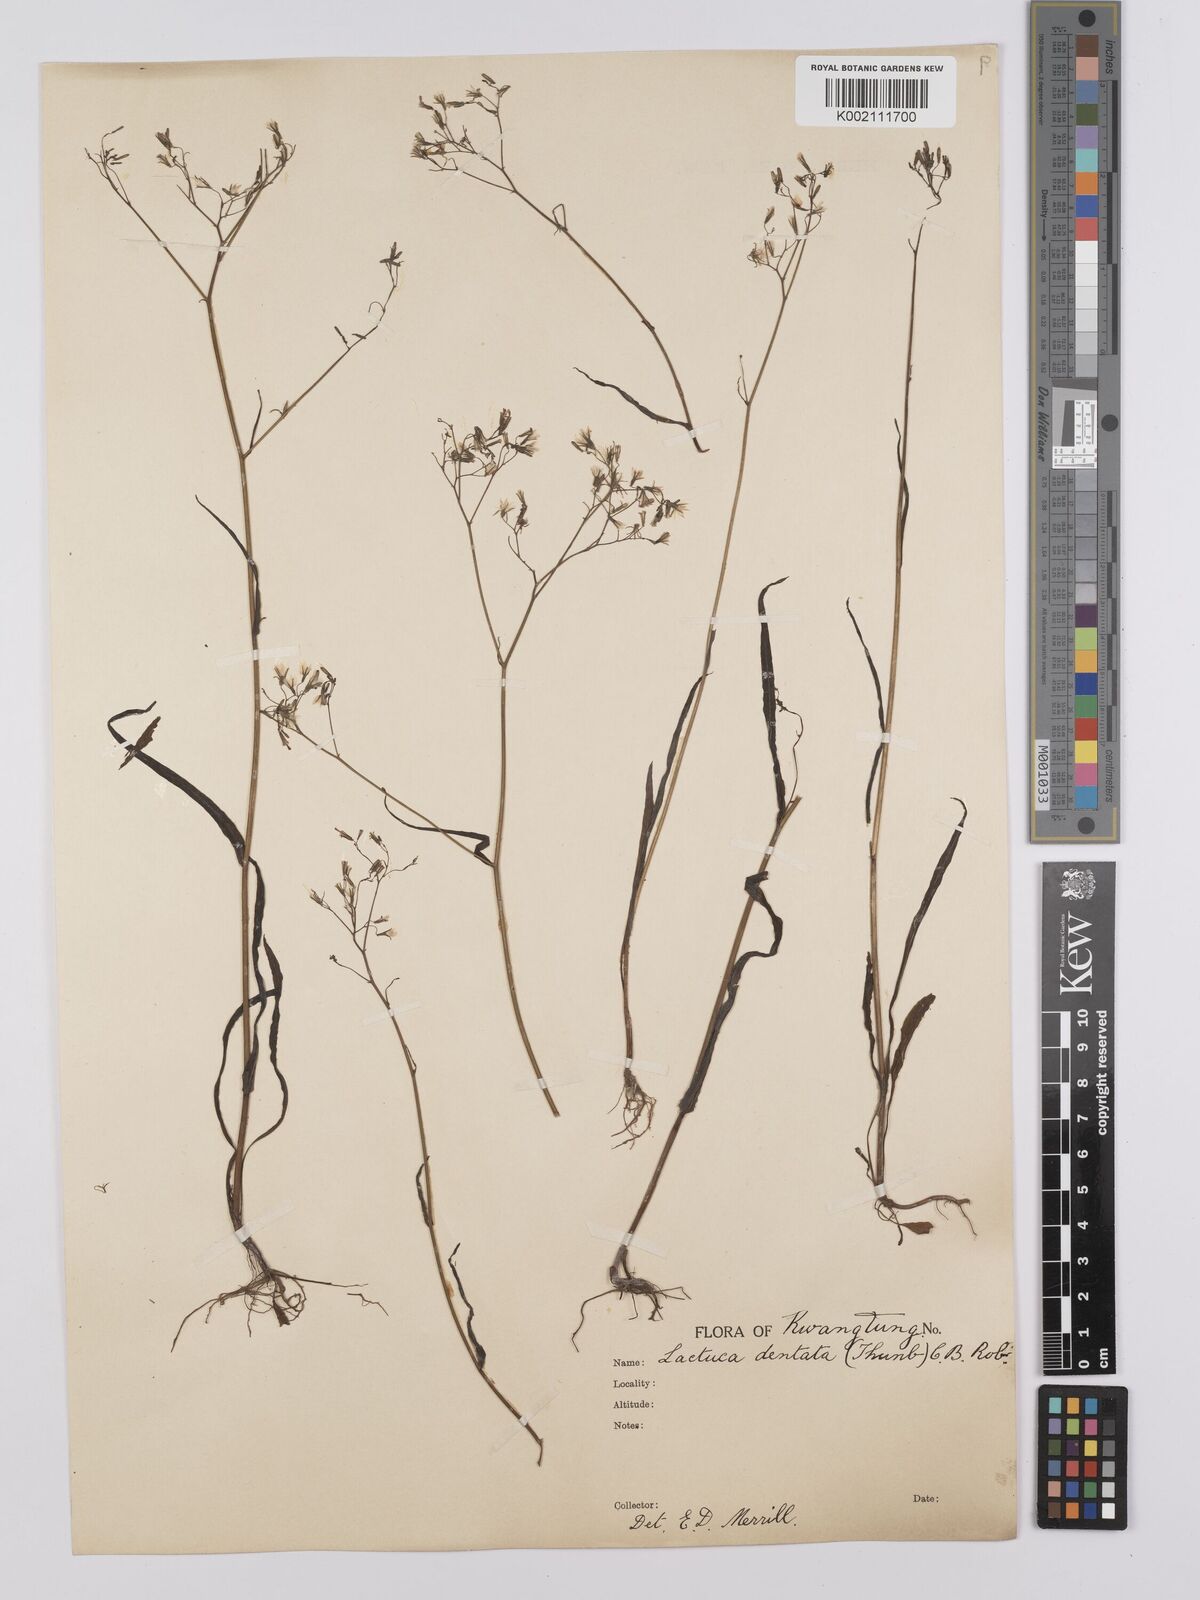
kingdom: Plantae
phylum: Tracheophyta
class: Magnoliopsida
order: Asterales
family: Asteraceae
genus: Ixeridium
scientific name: Ixeridium
